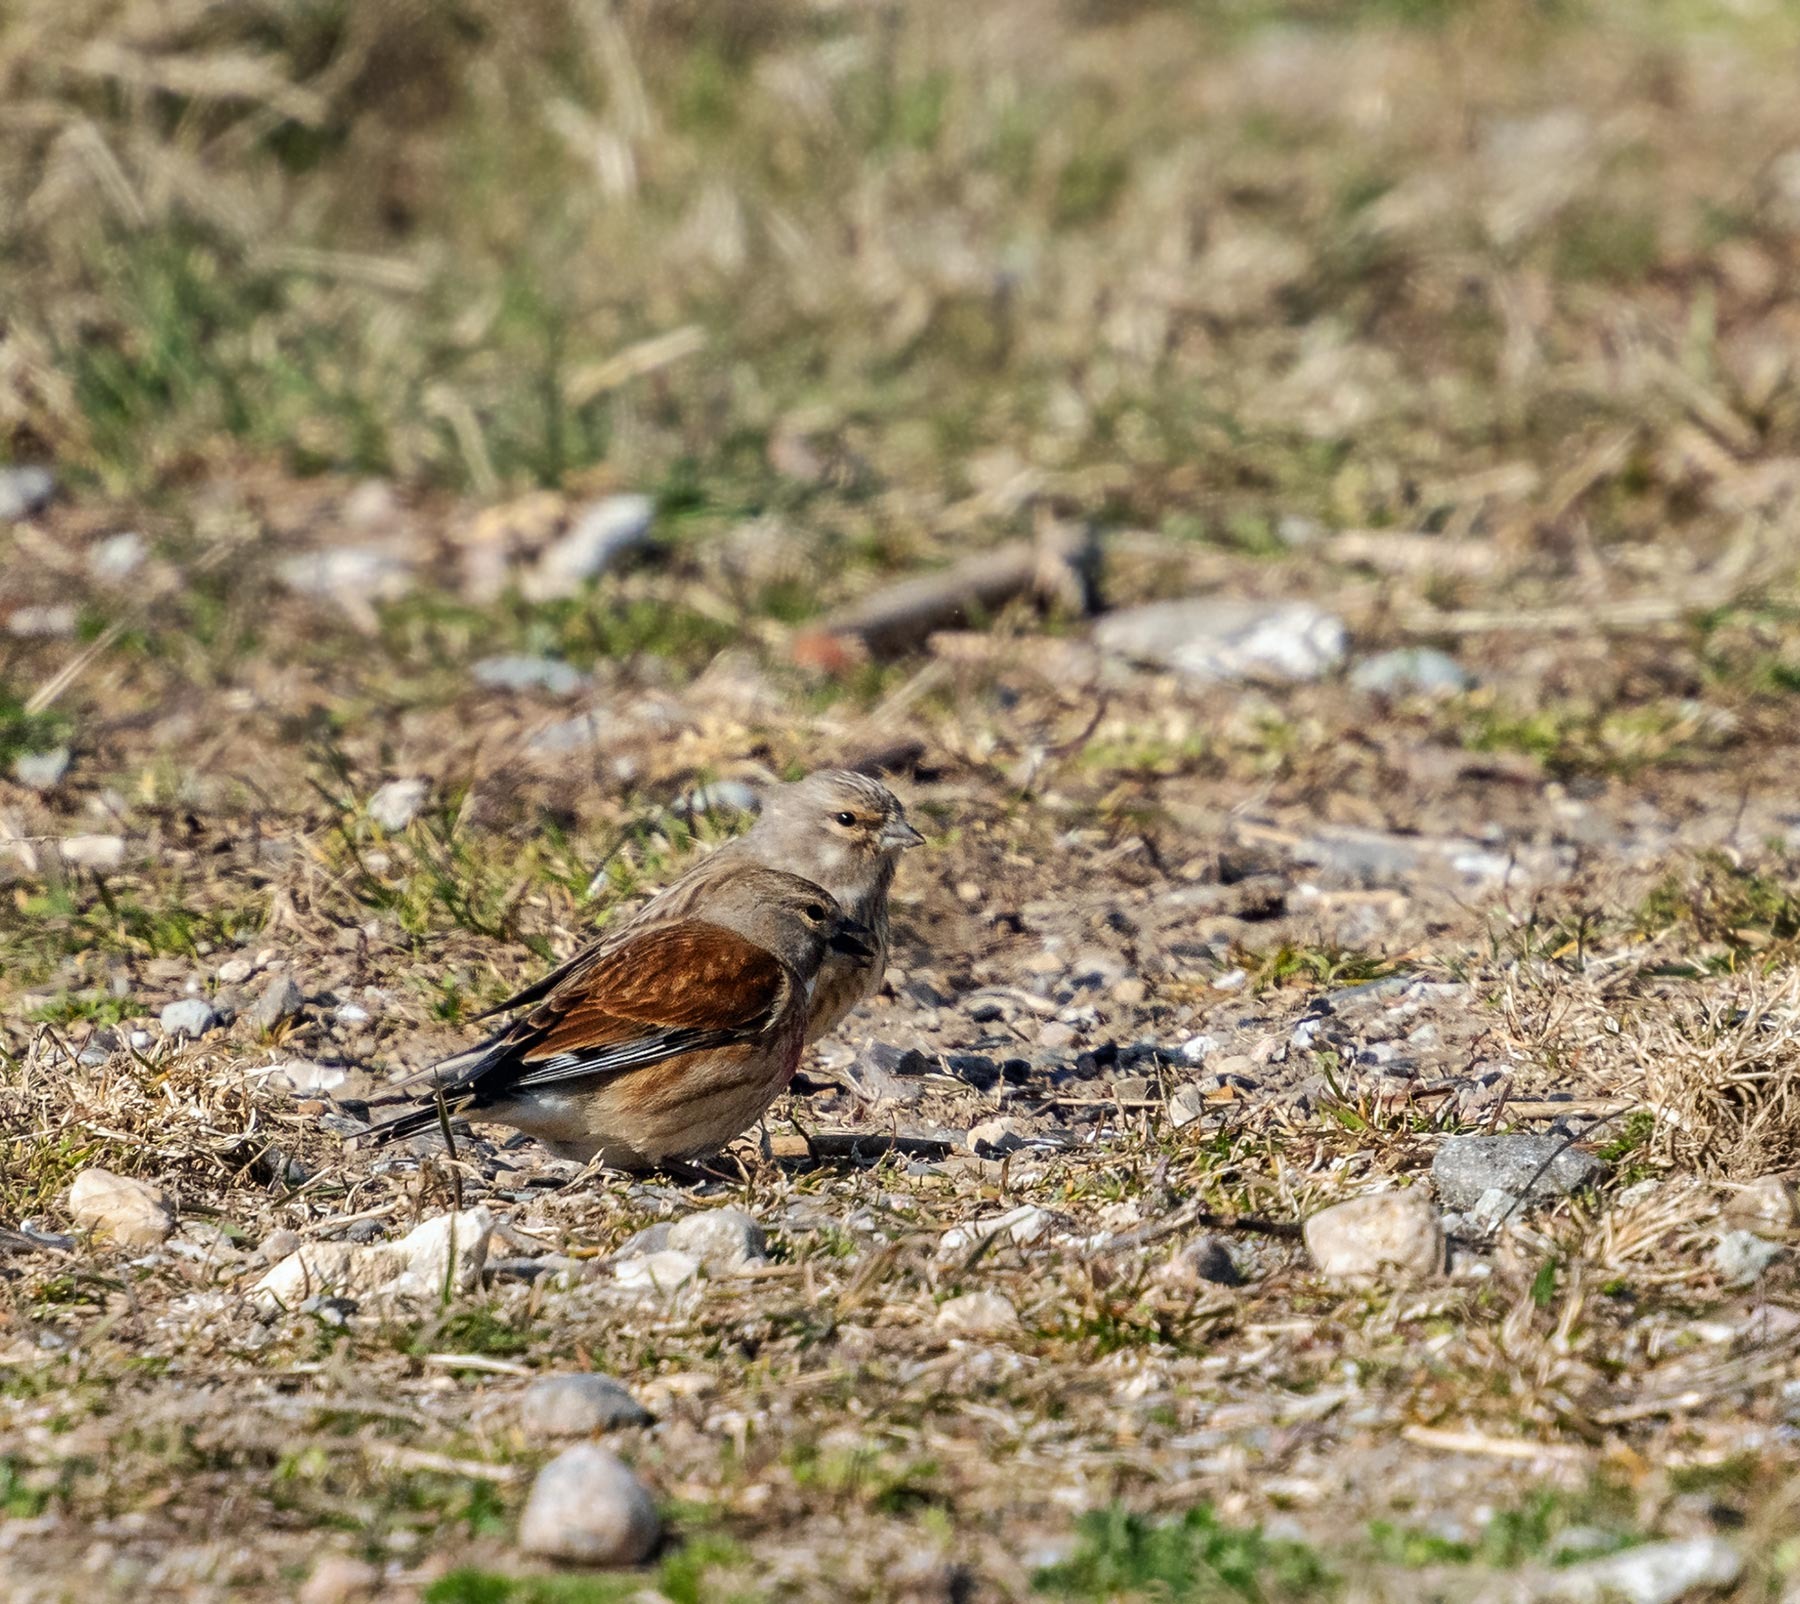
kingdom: Animalia
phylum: Chordata
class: Aves
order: Passeriformes
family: Fringillidae
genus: Linaria
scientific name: Linaria cannabina
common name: Tornirisk
